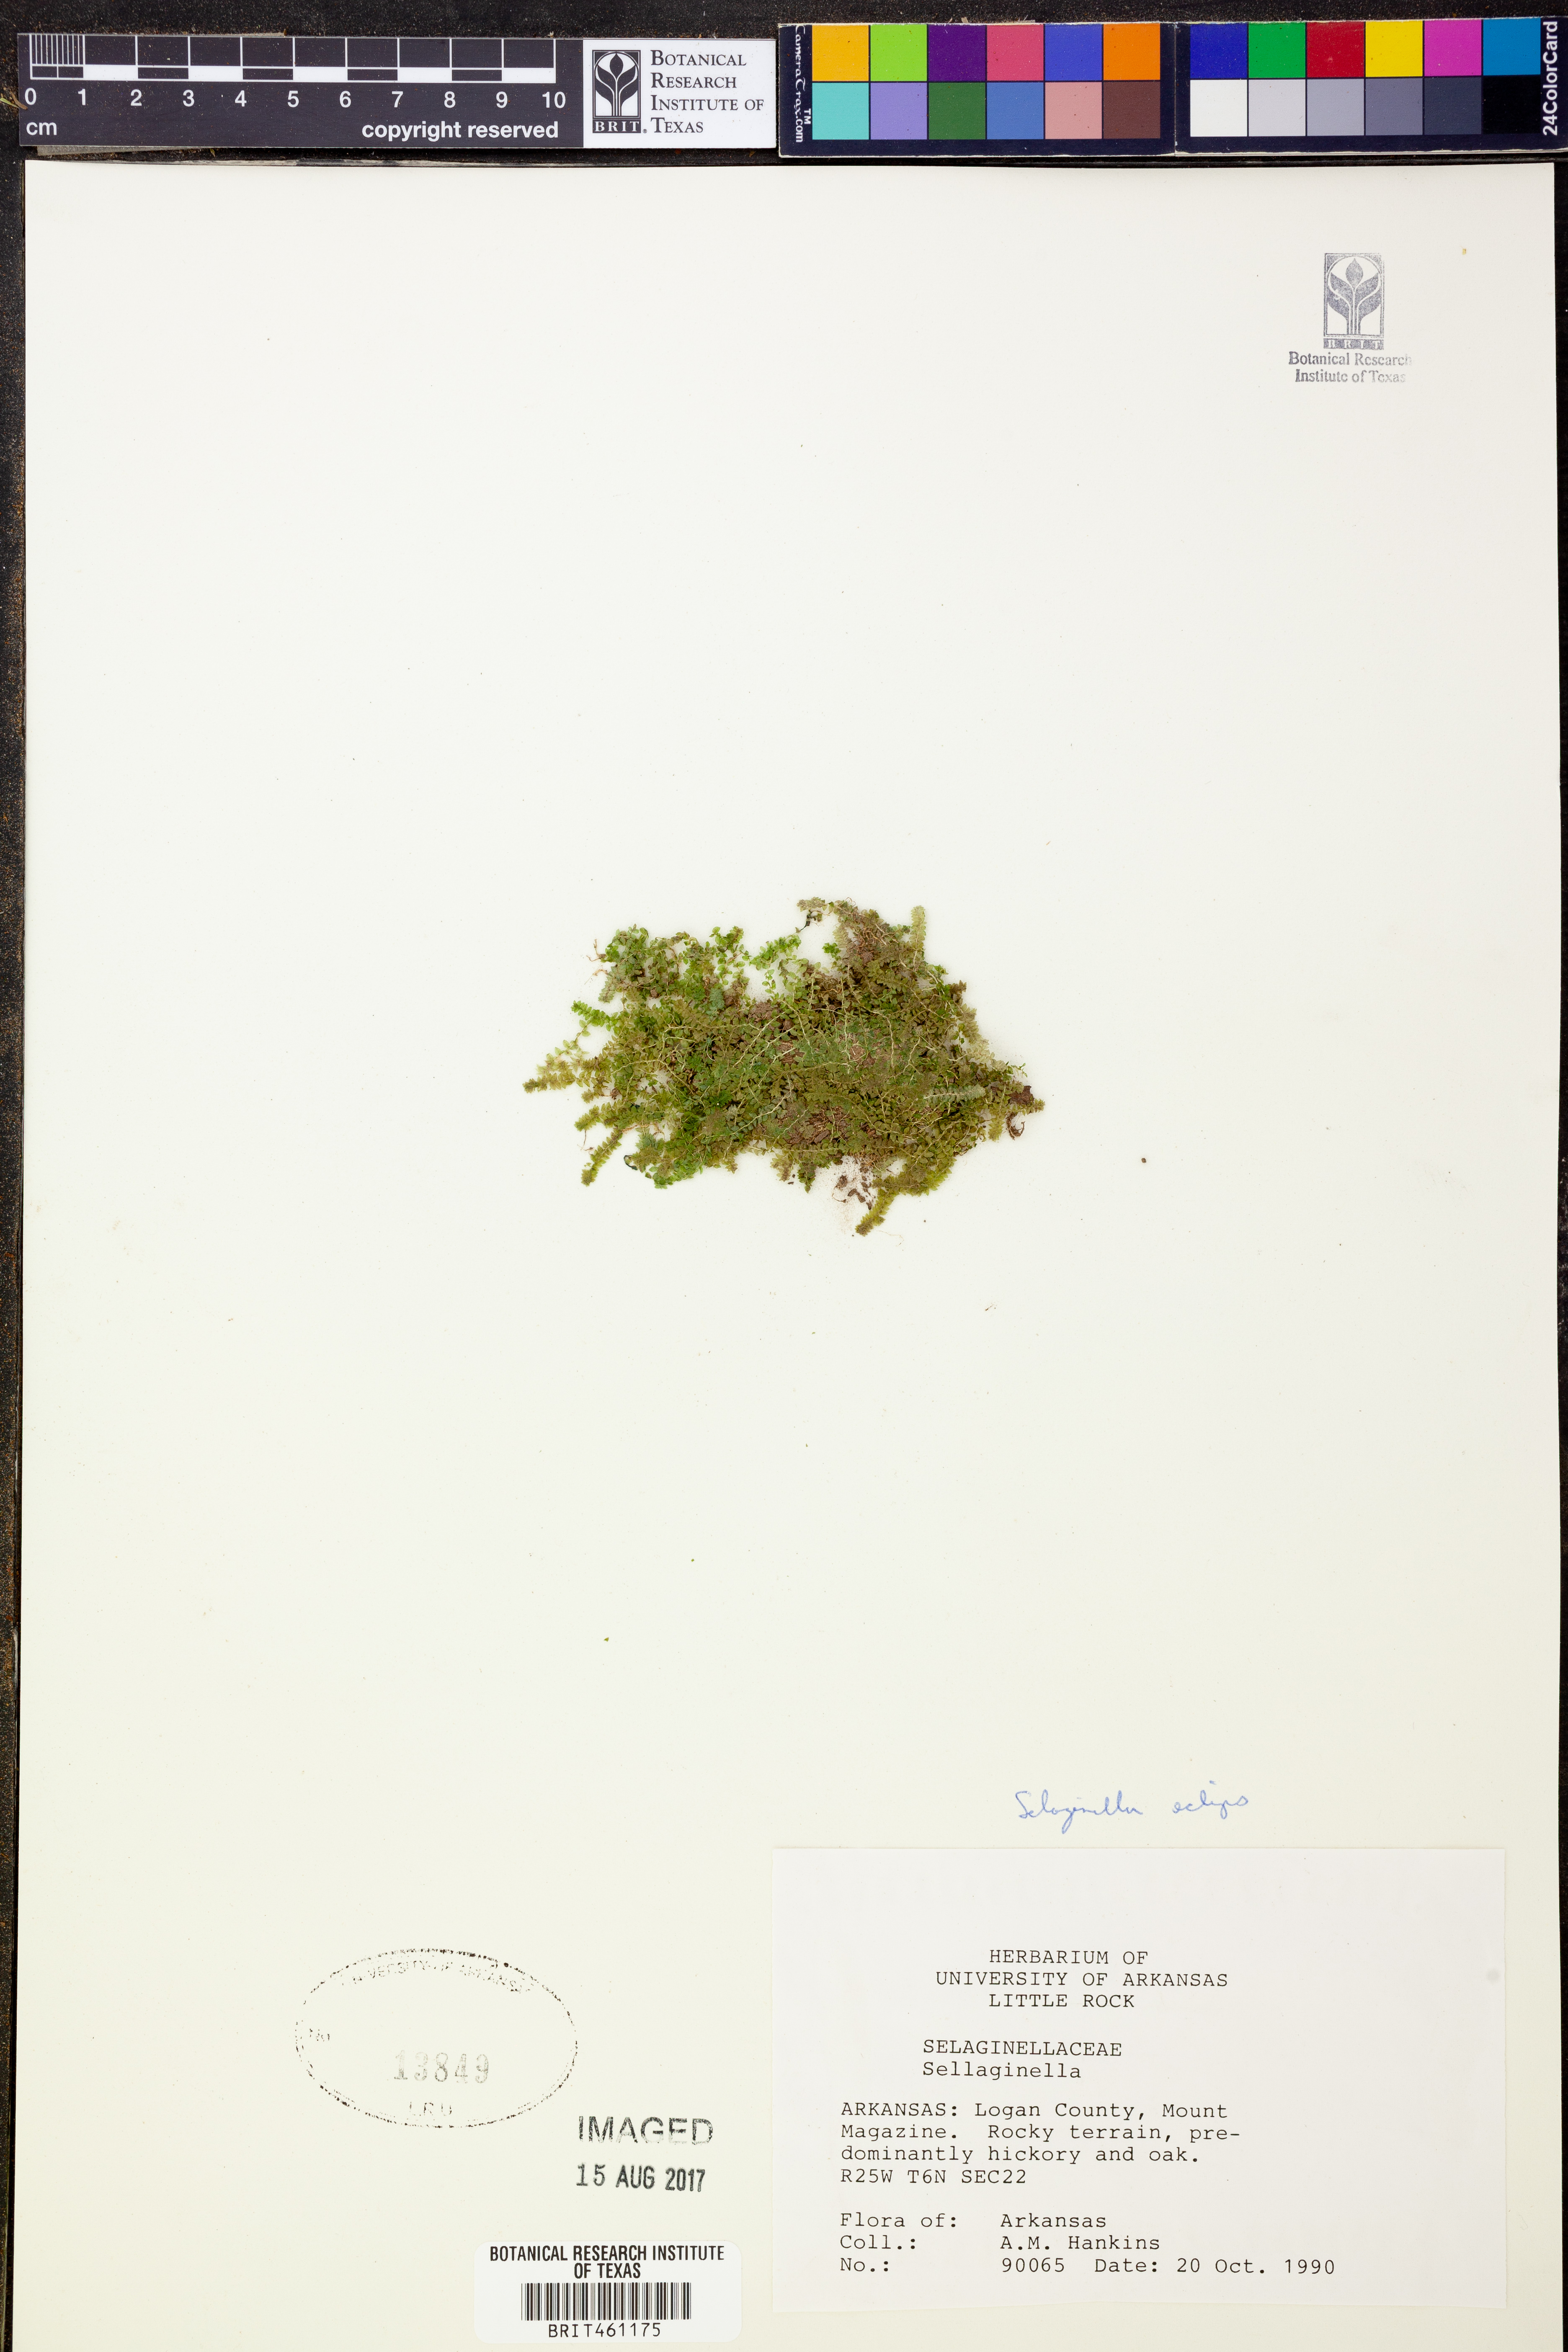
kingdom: Plantae
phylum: Tracheophyta
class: Lycopodiopsida
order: Selaginellales
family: Selaginellaceae
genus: Selaginella
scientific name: Selaginella eclipes
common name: Buck's meadow spikemoss
